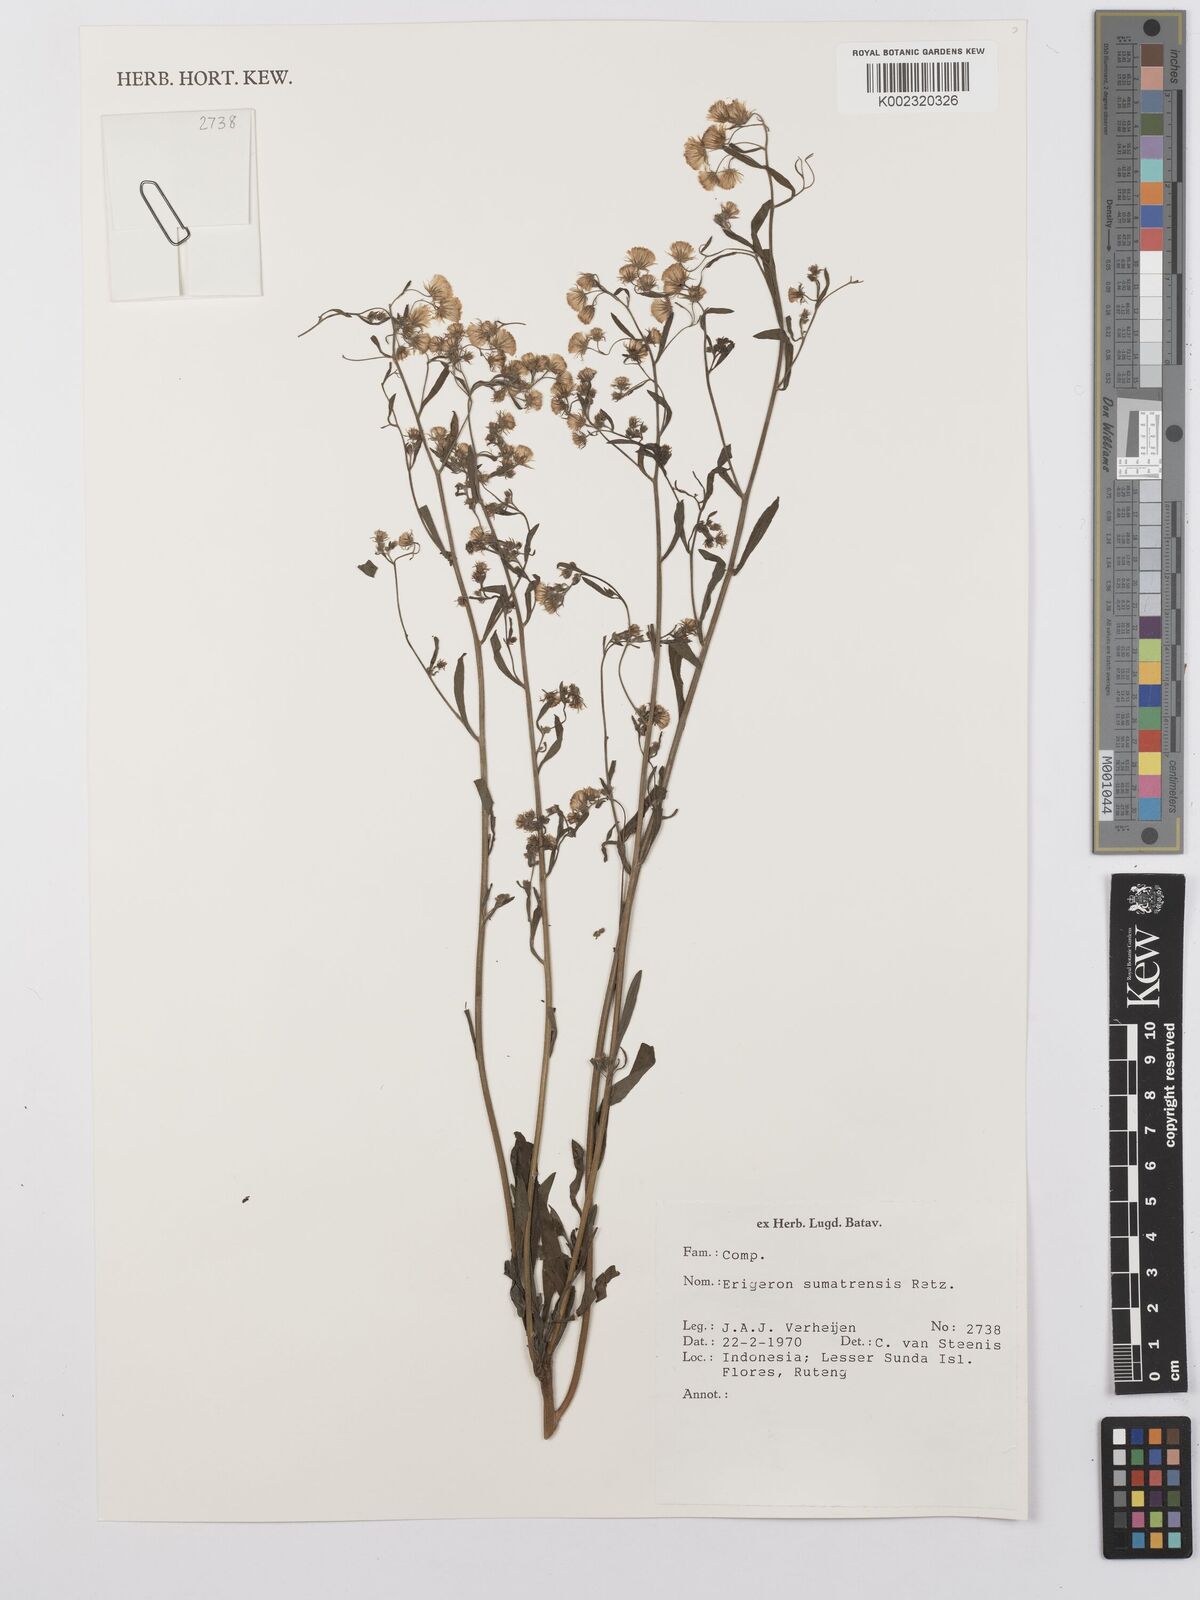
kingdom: Plantae
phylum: Tracheophyta
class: Magnoliopsida
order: Asterales
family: Asteraceae
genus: Erigeron
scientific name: Erigeron sumatrensis
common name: Daisy
